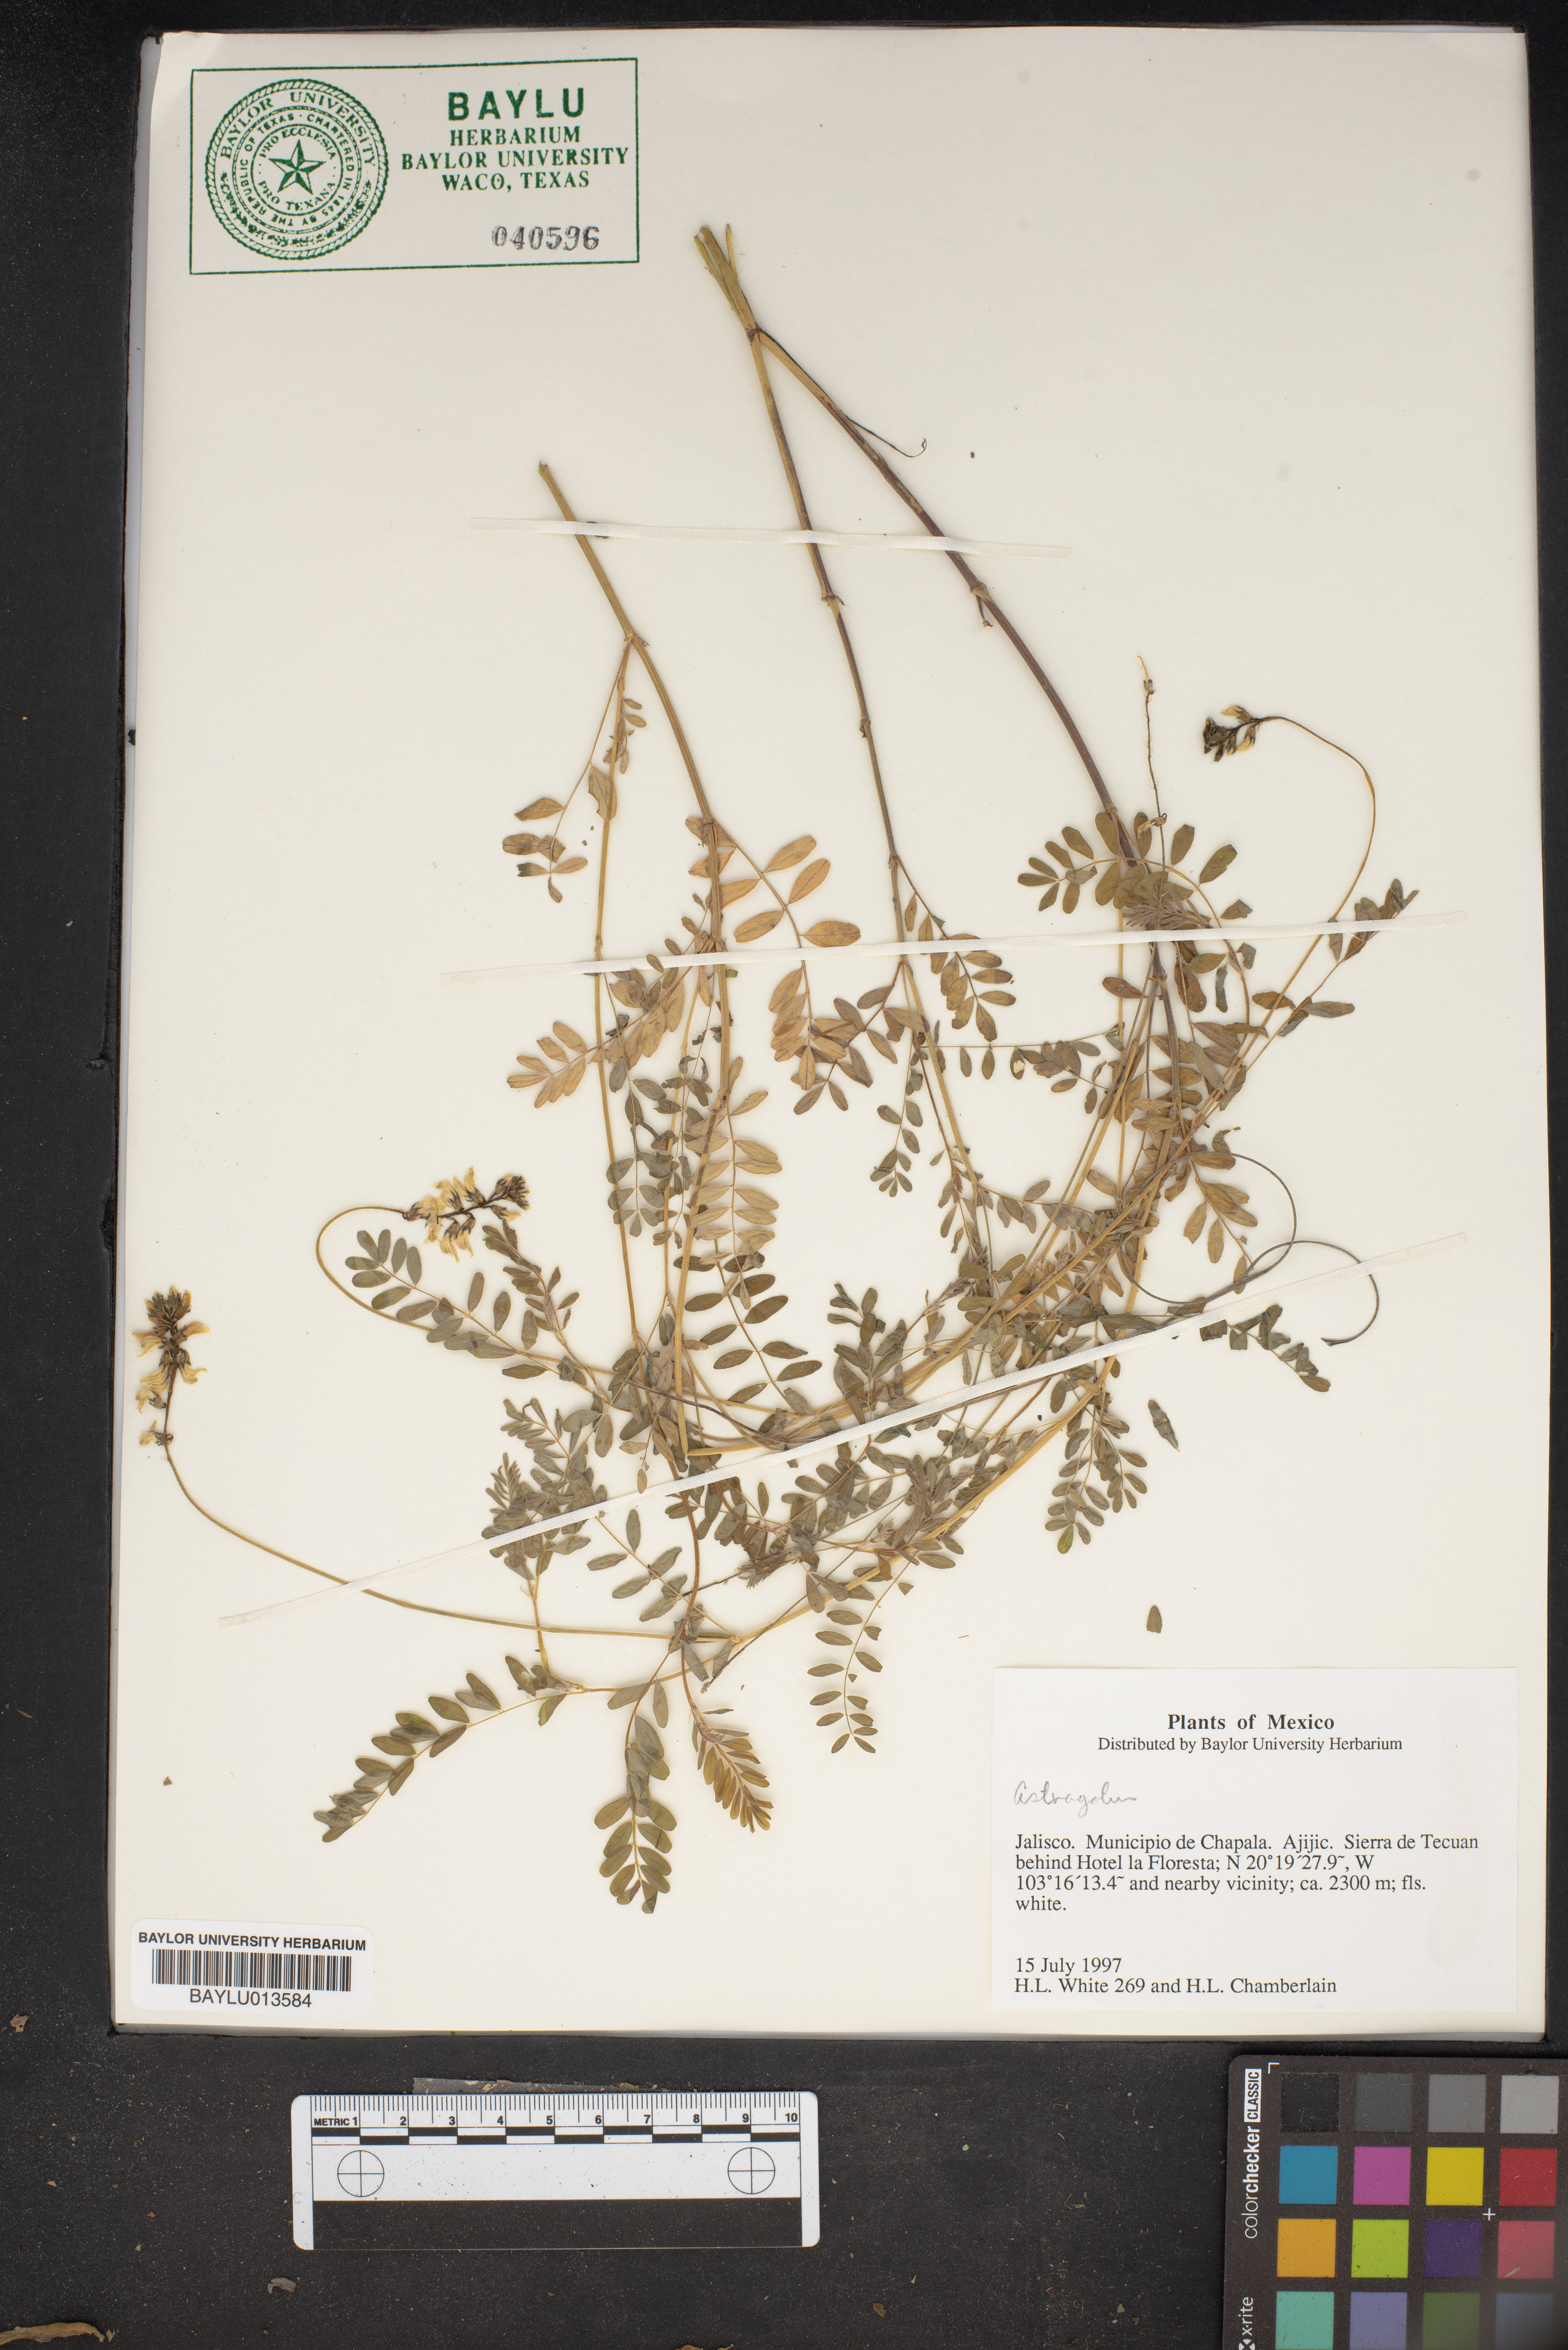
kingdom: Plantae
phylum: Tracheophyta
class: Magnoliopsida
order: Fabales
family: Fabaceae
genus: Astragalus
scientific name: Astragalus
